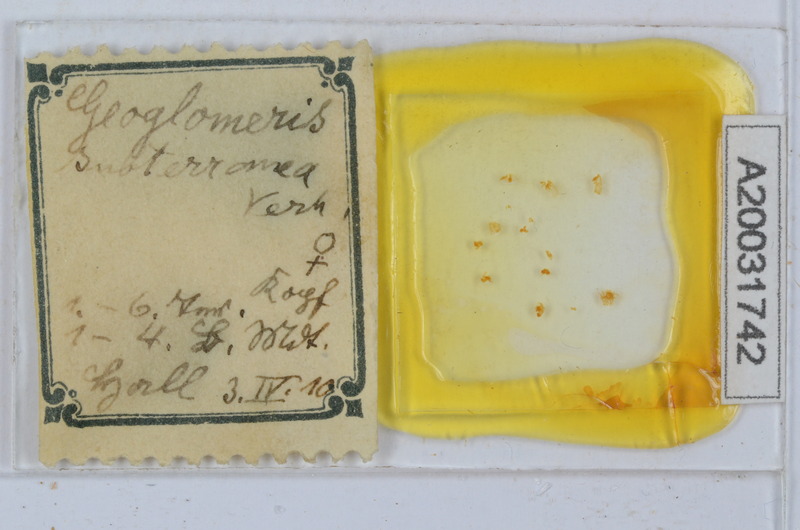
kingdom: Animalia
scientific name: Animalia
